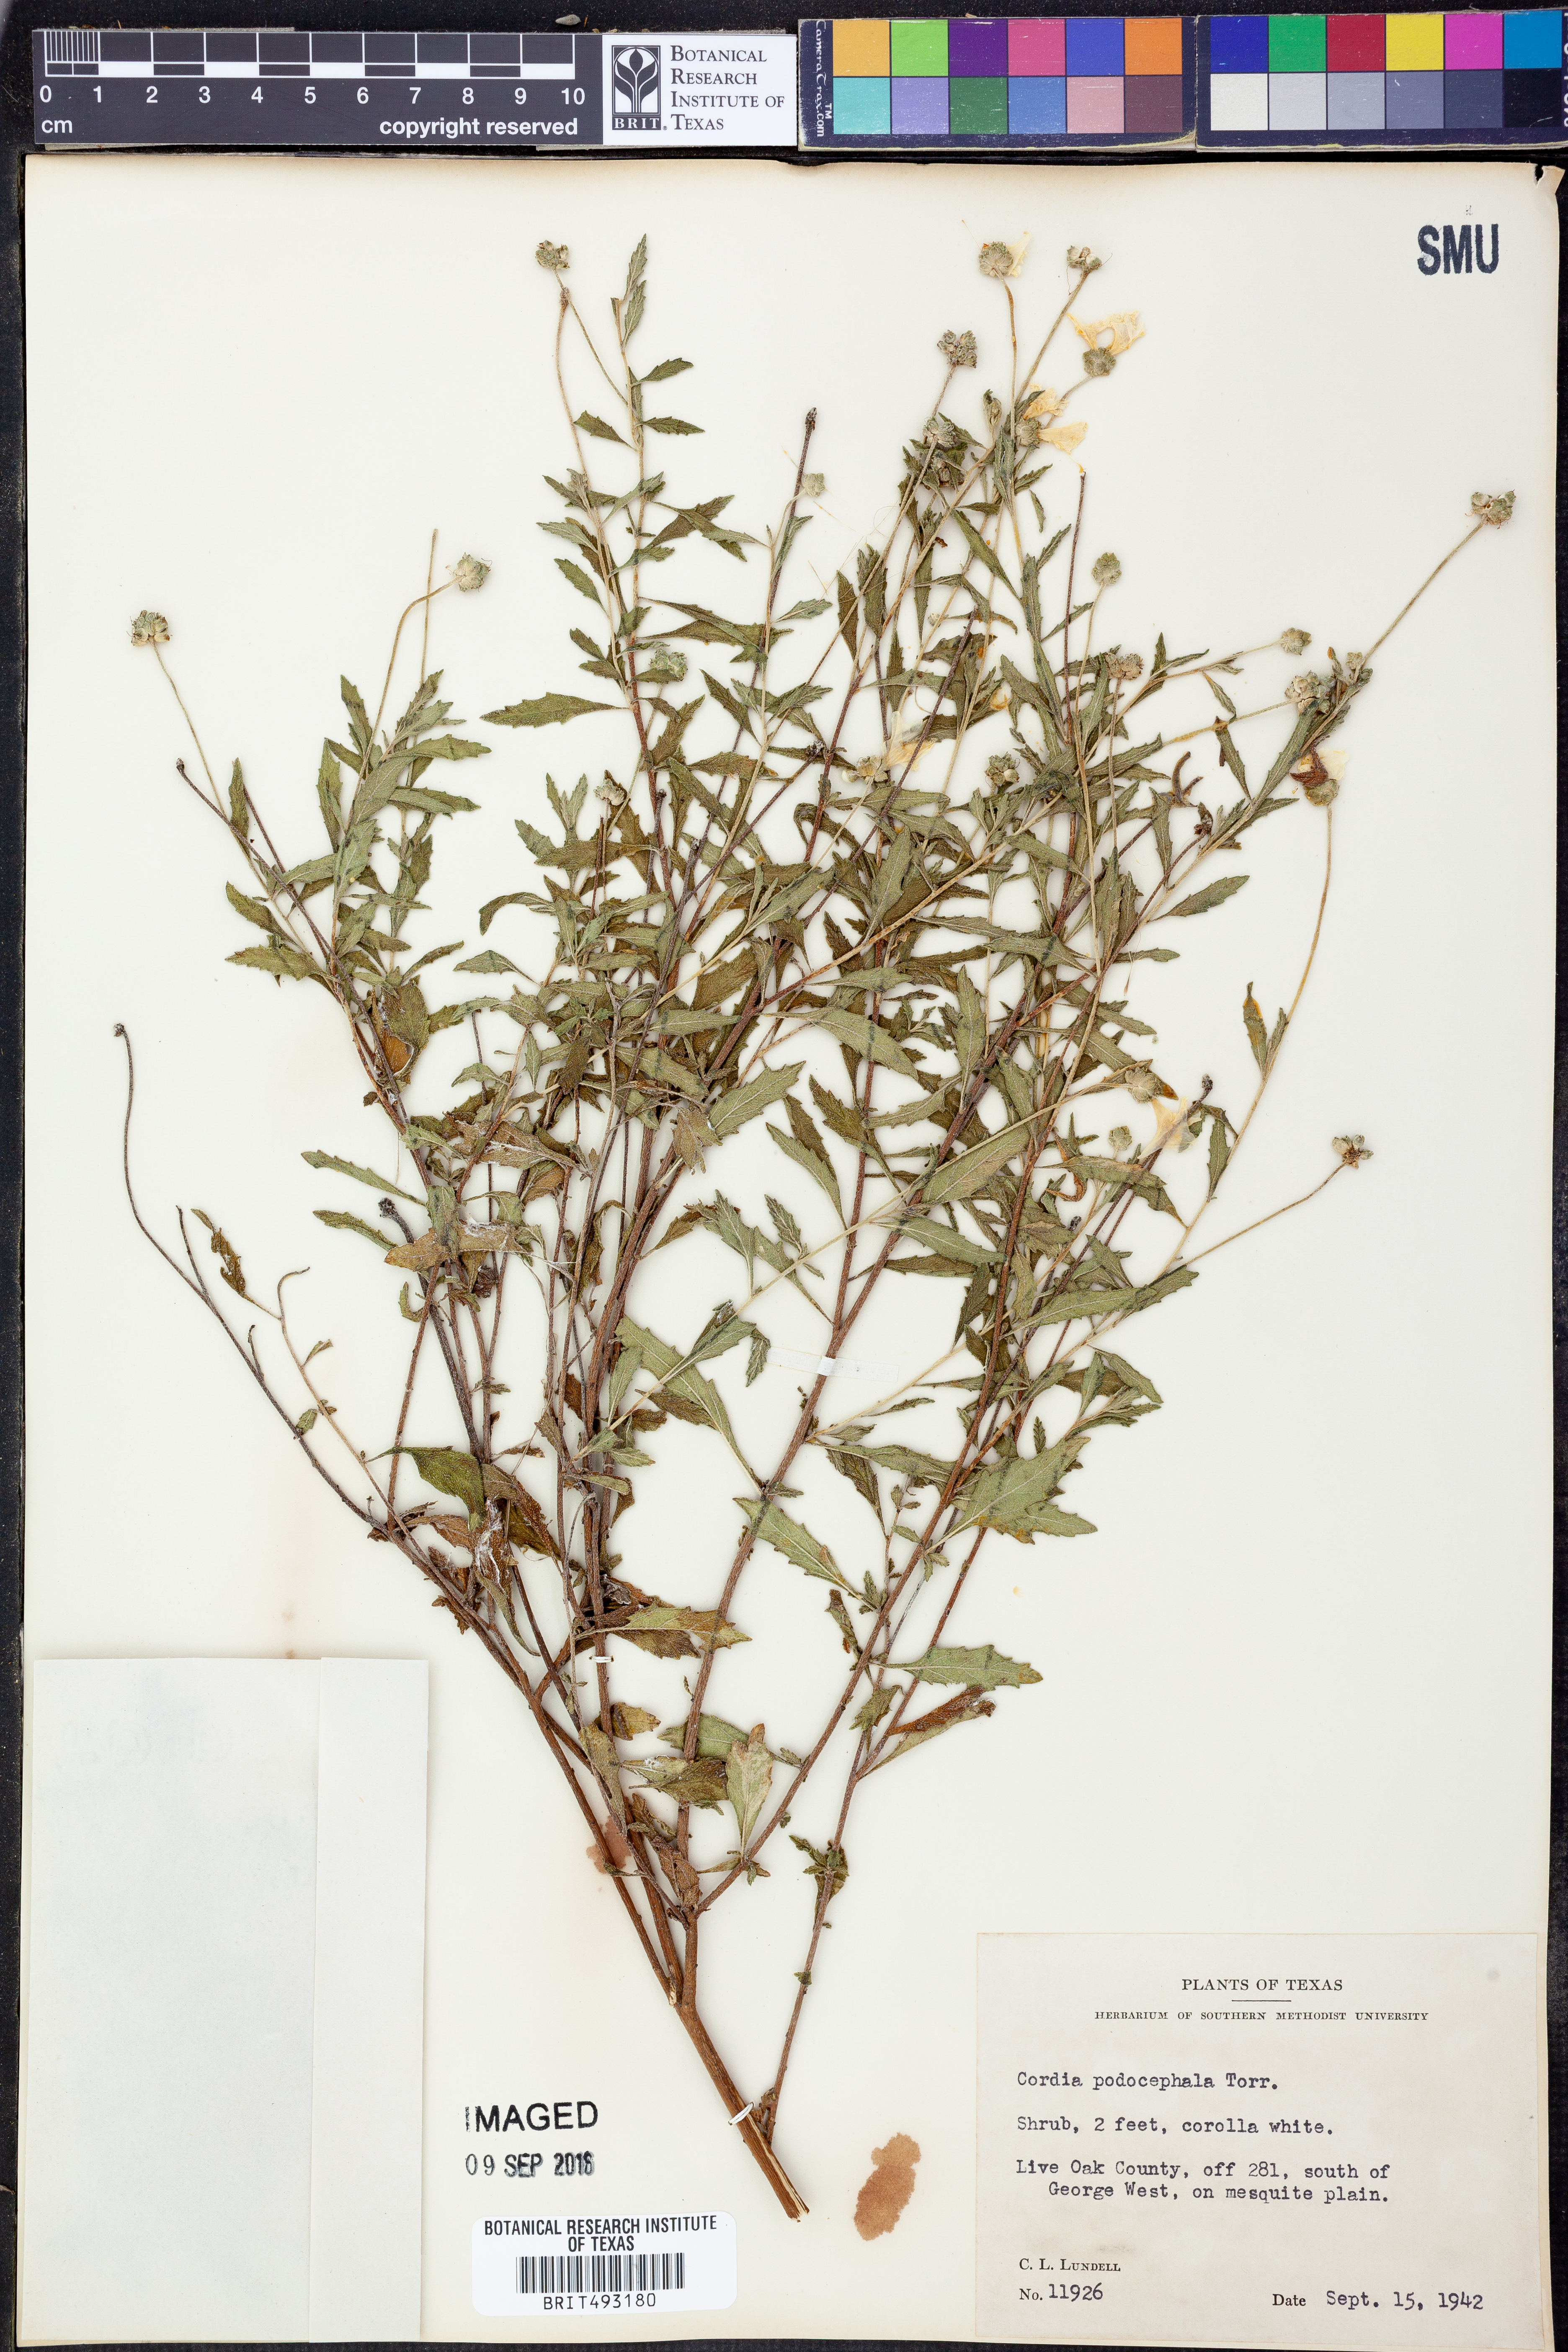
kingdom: Plantae
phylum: Tracheophyta
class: Magnoliopsida
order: Boraginales
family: Cordiaceae
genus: Varronia
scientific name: Varronia podocephala
